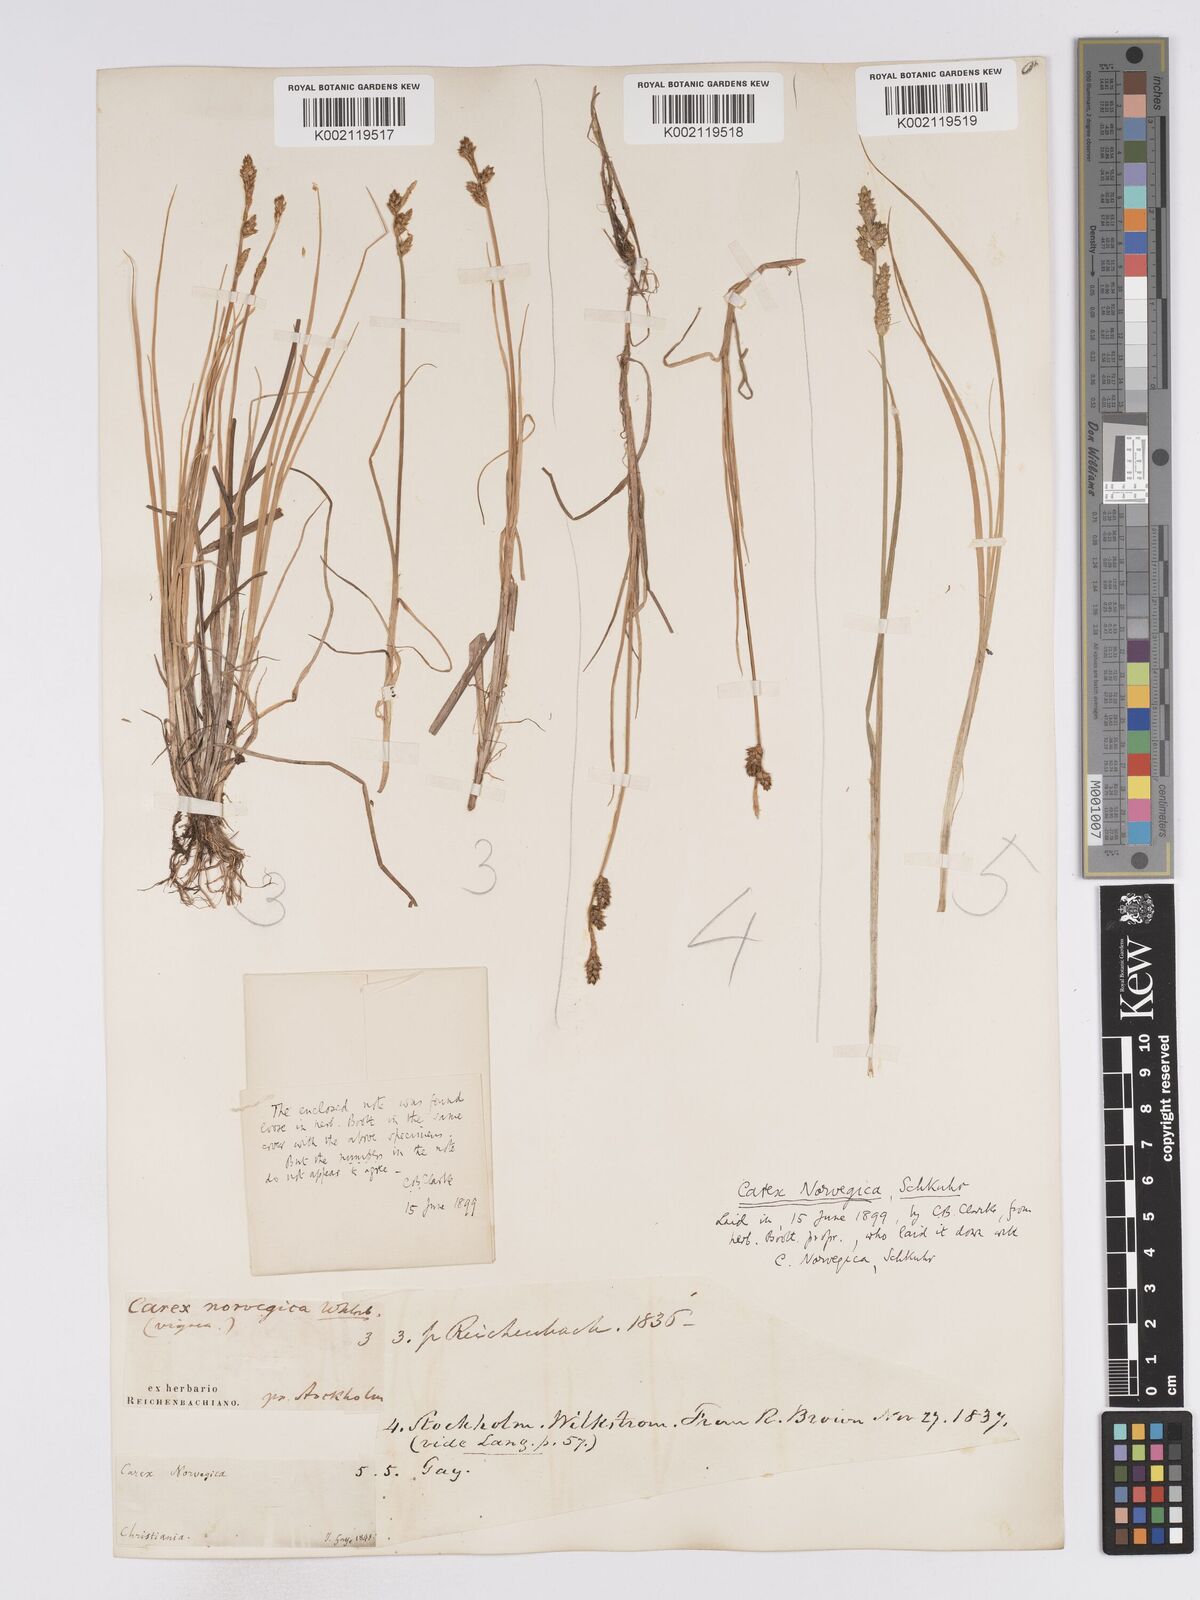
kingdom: Plantae
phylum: Tracheophyta
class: Liliopsida
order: Poales
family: Cyperaceae
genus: Carex
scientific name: Carex mackenziei
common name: Mackenzie's sedge
